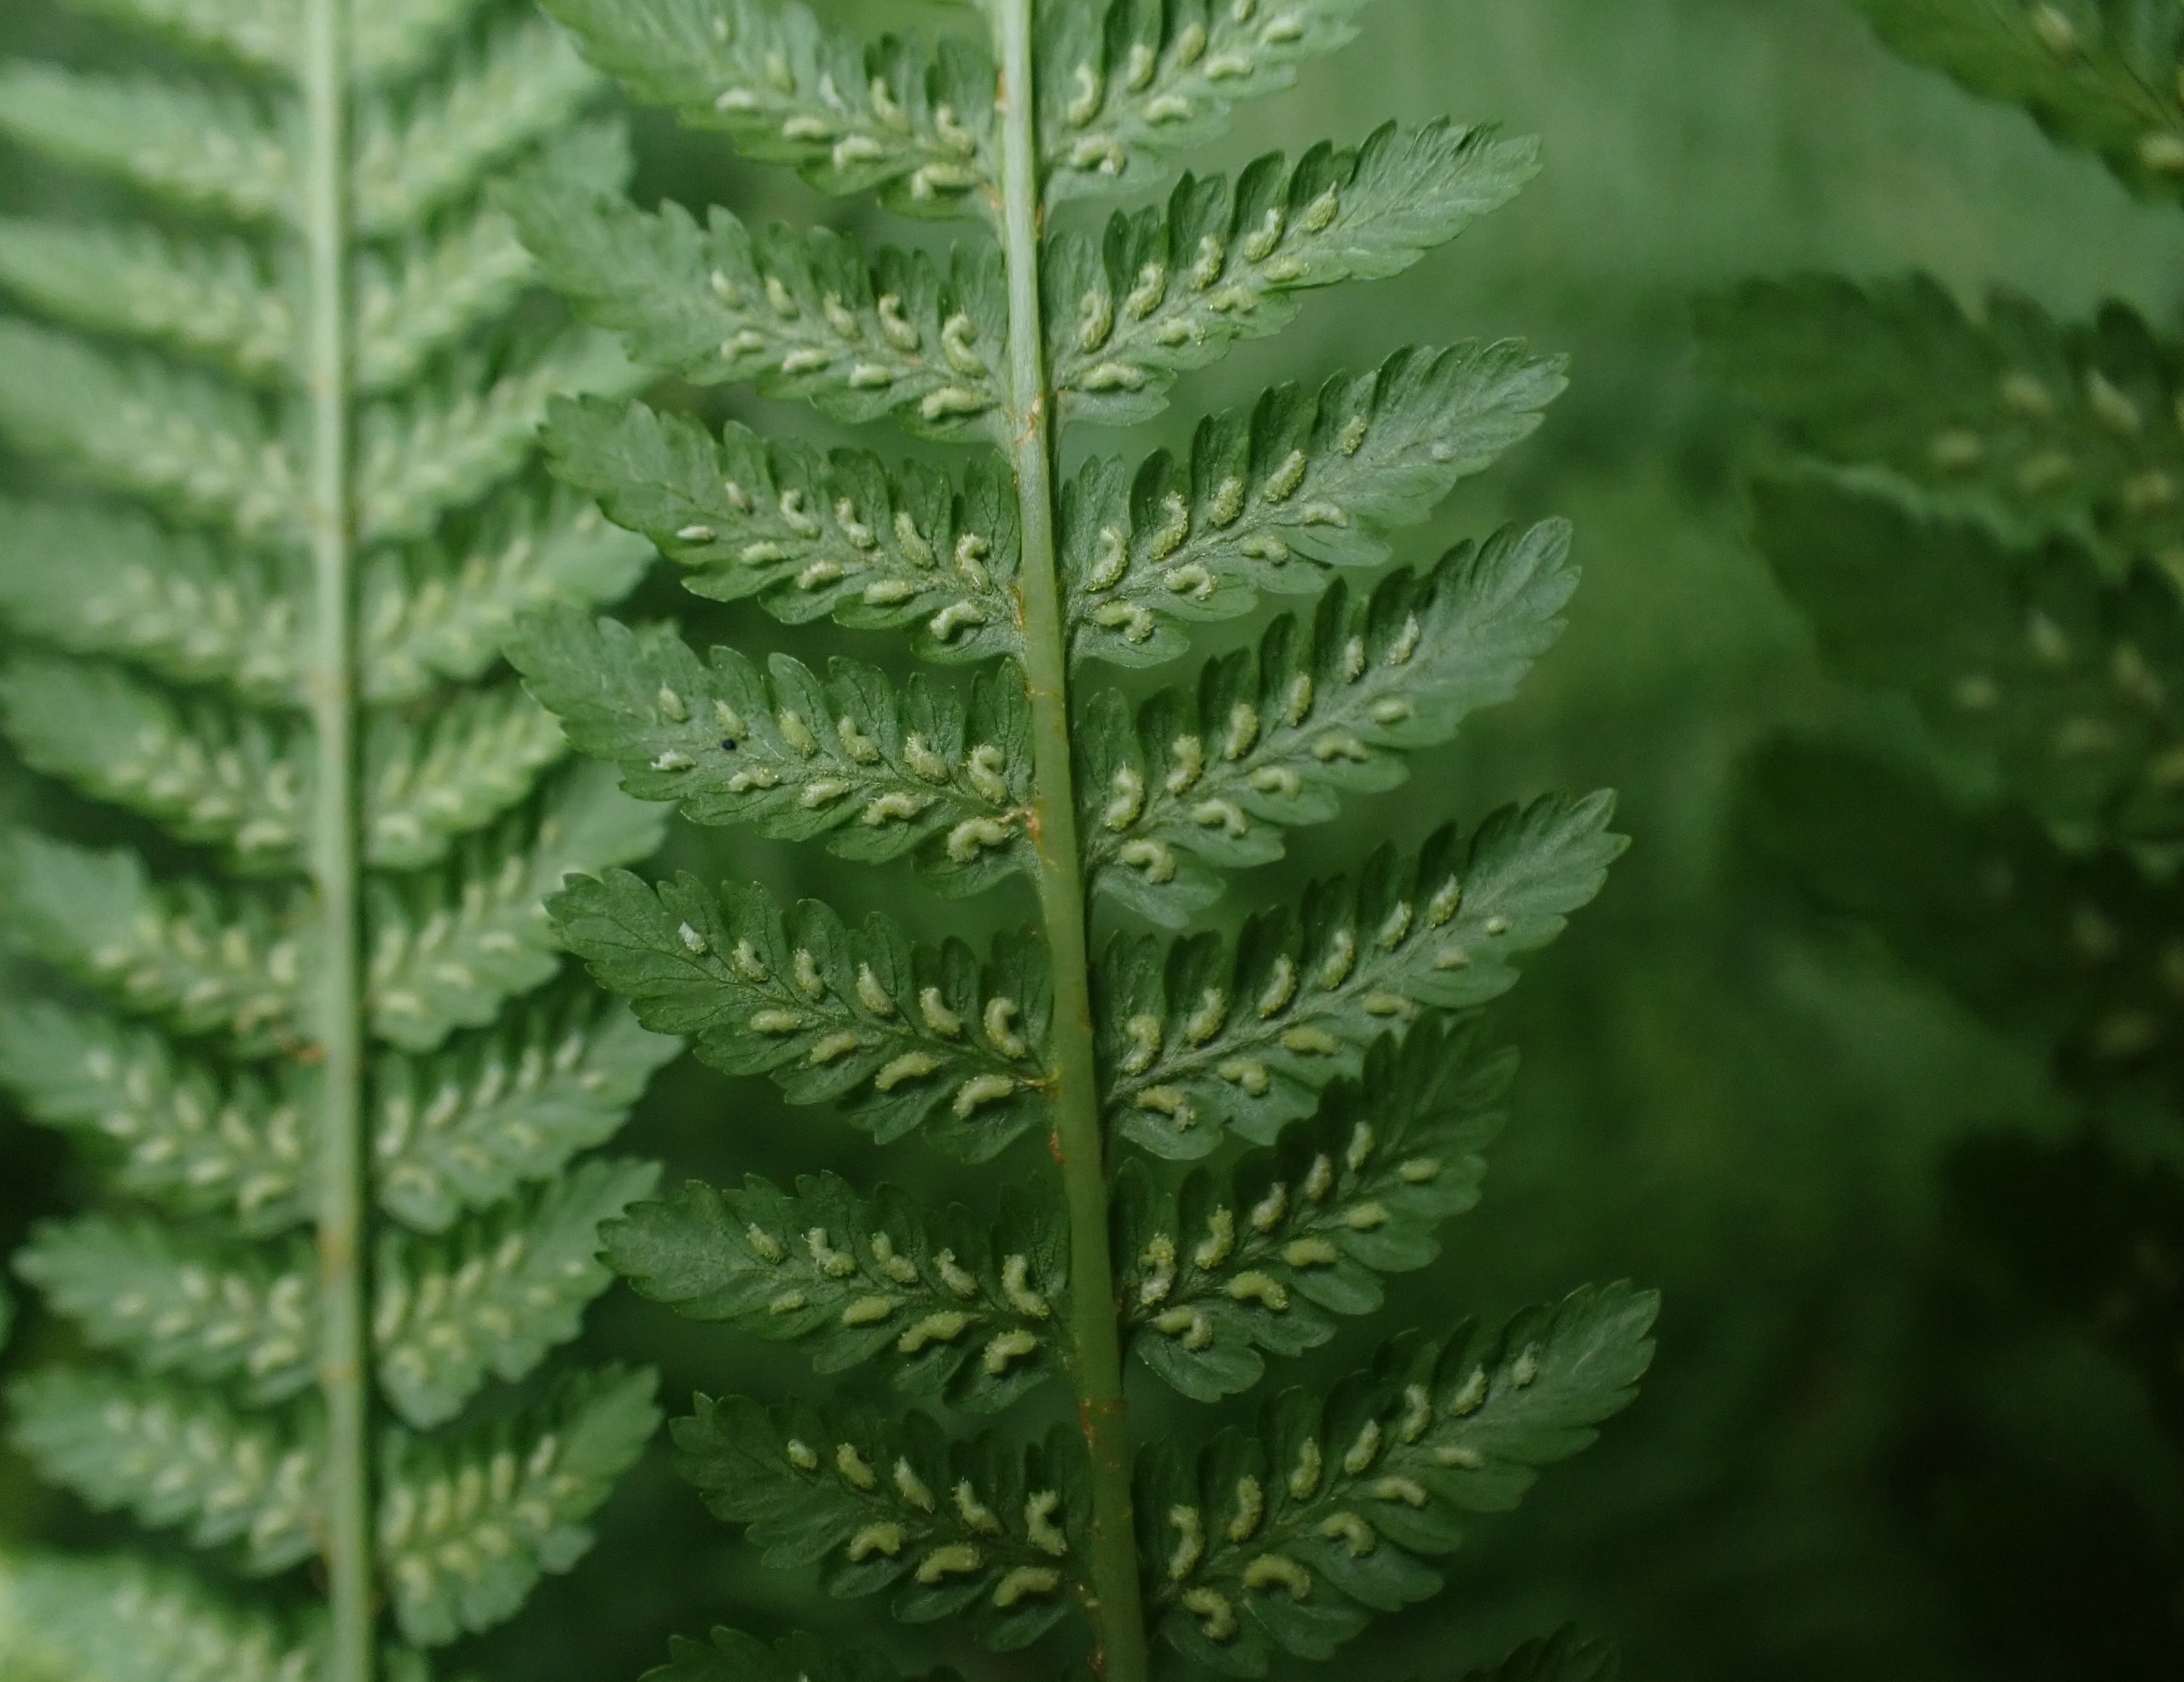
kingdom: Plantae
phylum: Tracheophyta
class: Polypodiopsida
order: Polypodiales
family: Athyriaceae
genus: Athyrium
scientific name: Athyrium filix-femina
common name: Fjerbregne
